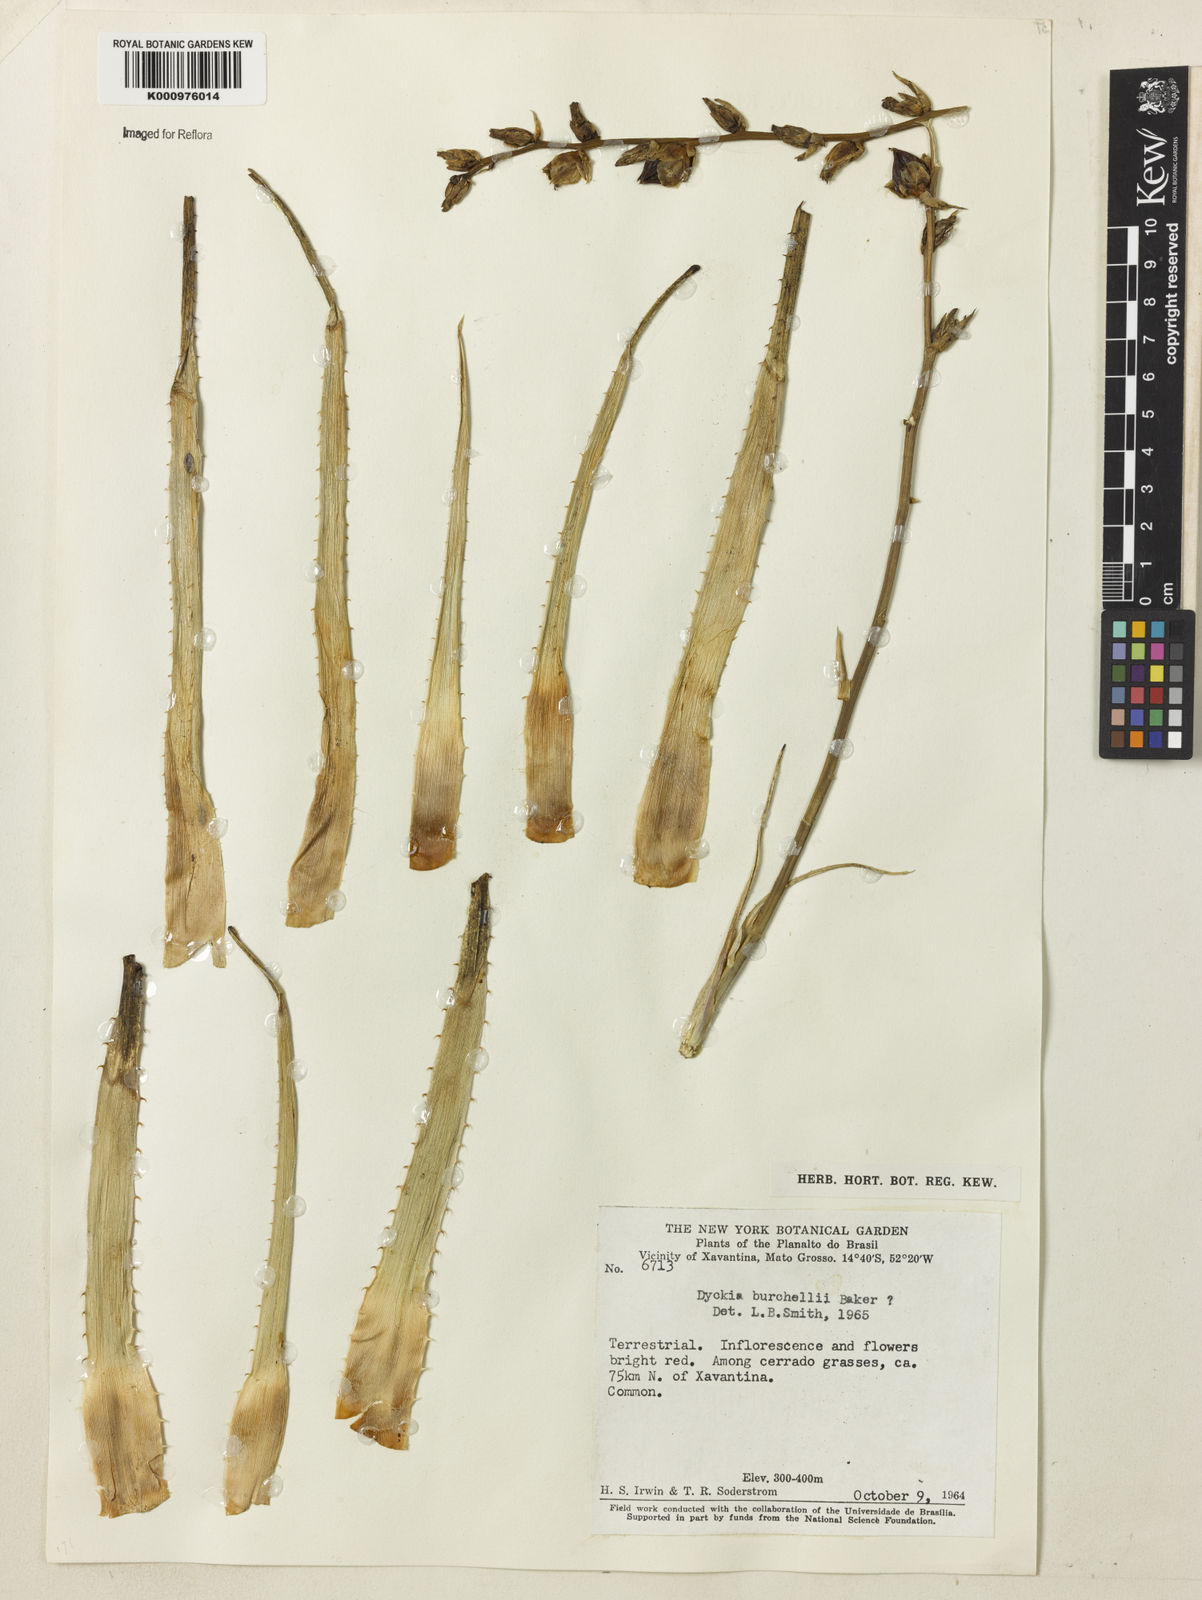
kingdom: Plantae
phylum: Tracheophyta
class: Liliopsida
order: Poales
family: Bromeliaceae
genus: Dyckia
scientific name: Dyckia burchellii
